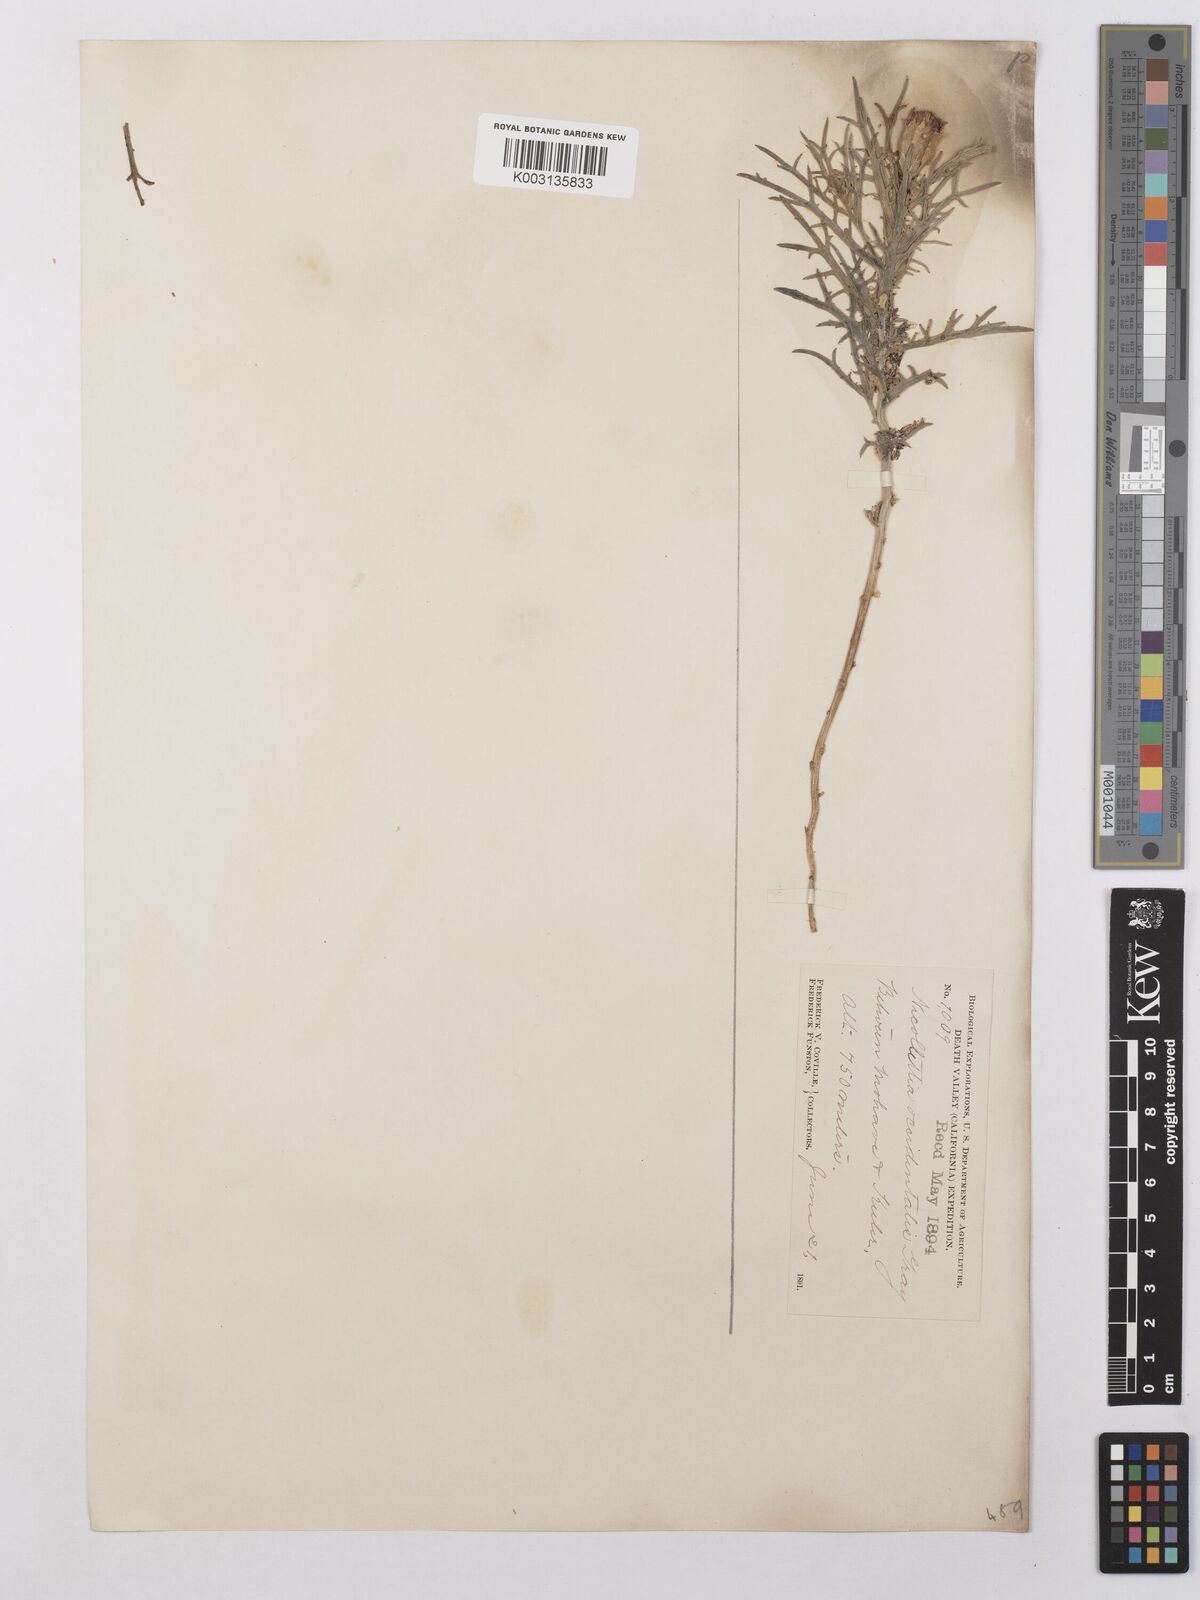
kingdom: Plantae
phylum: Tracheophyta
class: Magnoliopsida
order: Asterales
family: Asteraceae
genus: Nicolletia
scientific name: Nicolletia occidentalis
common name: Hole-in-the-sand-plant
